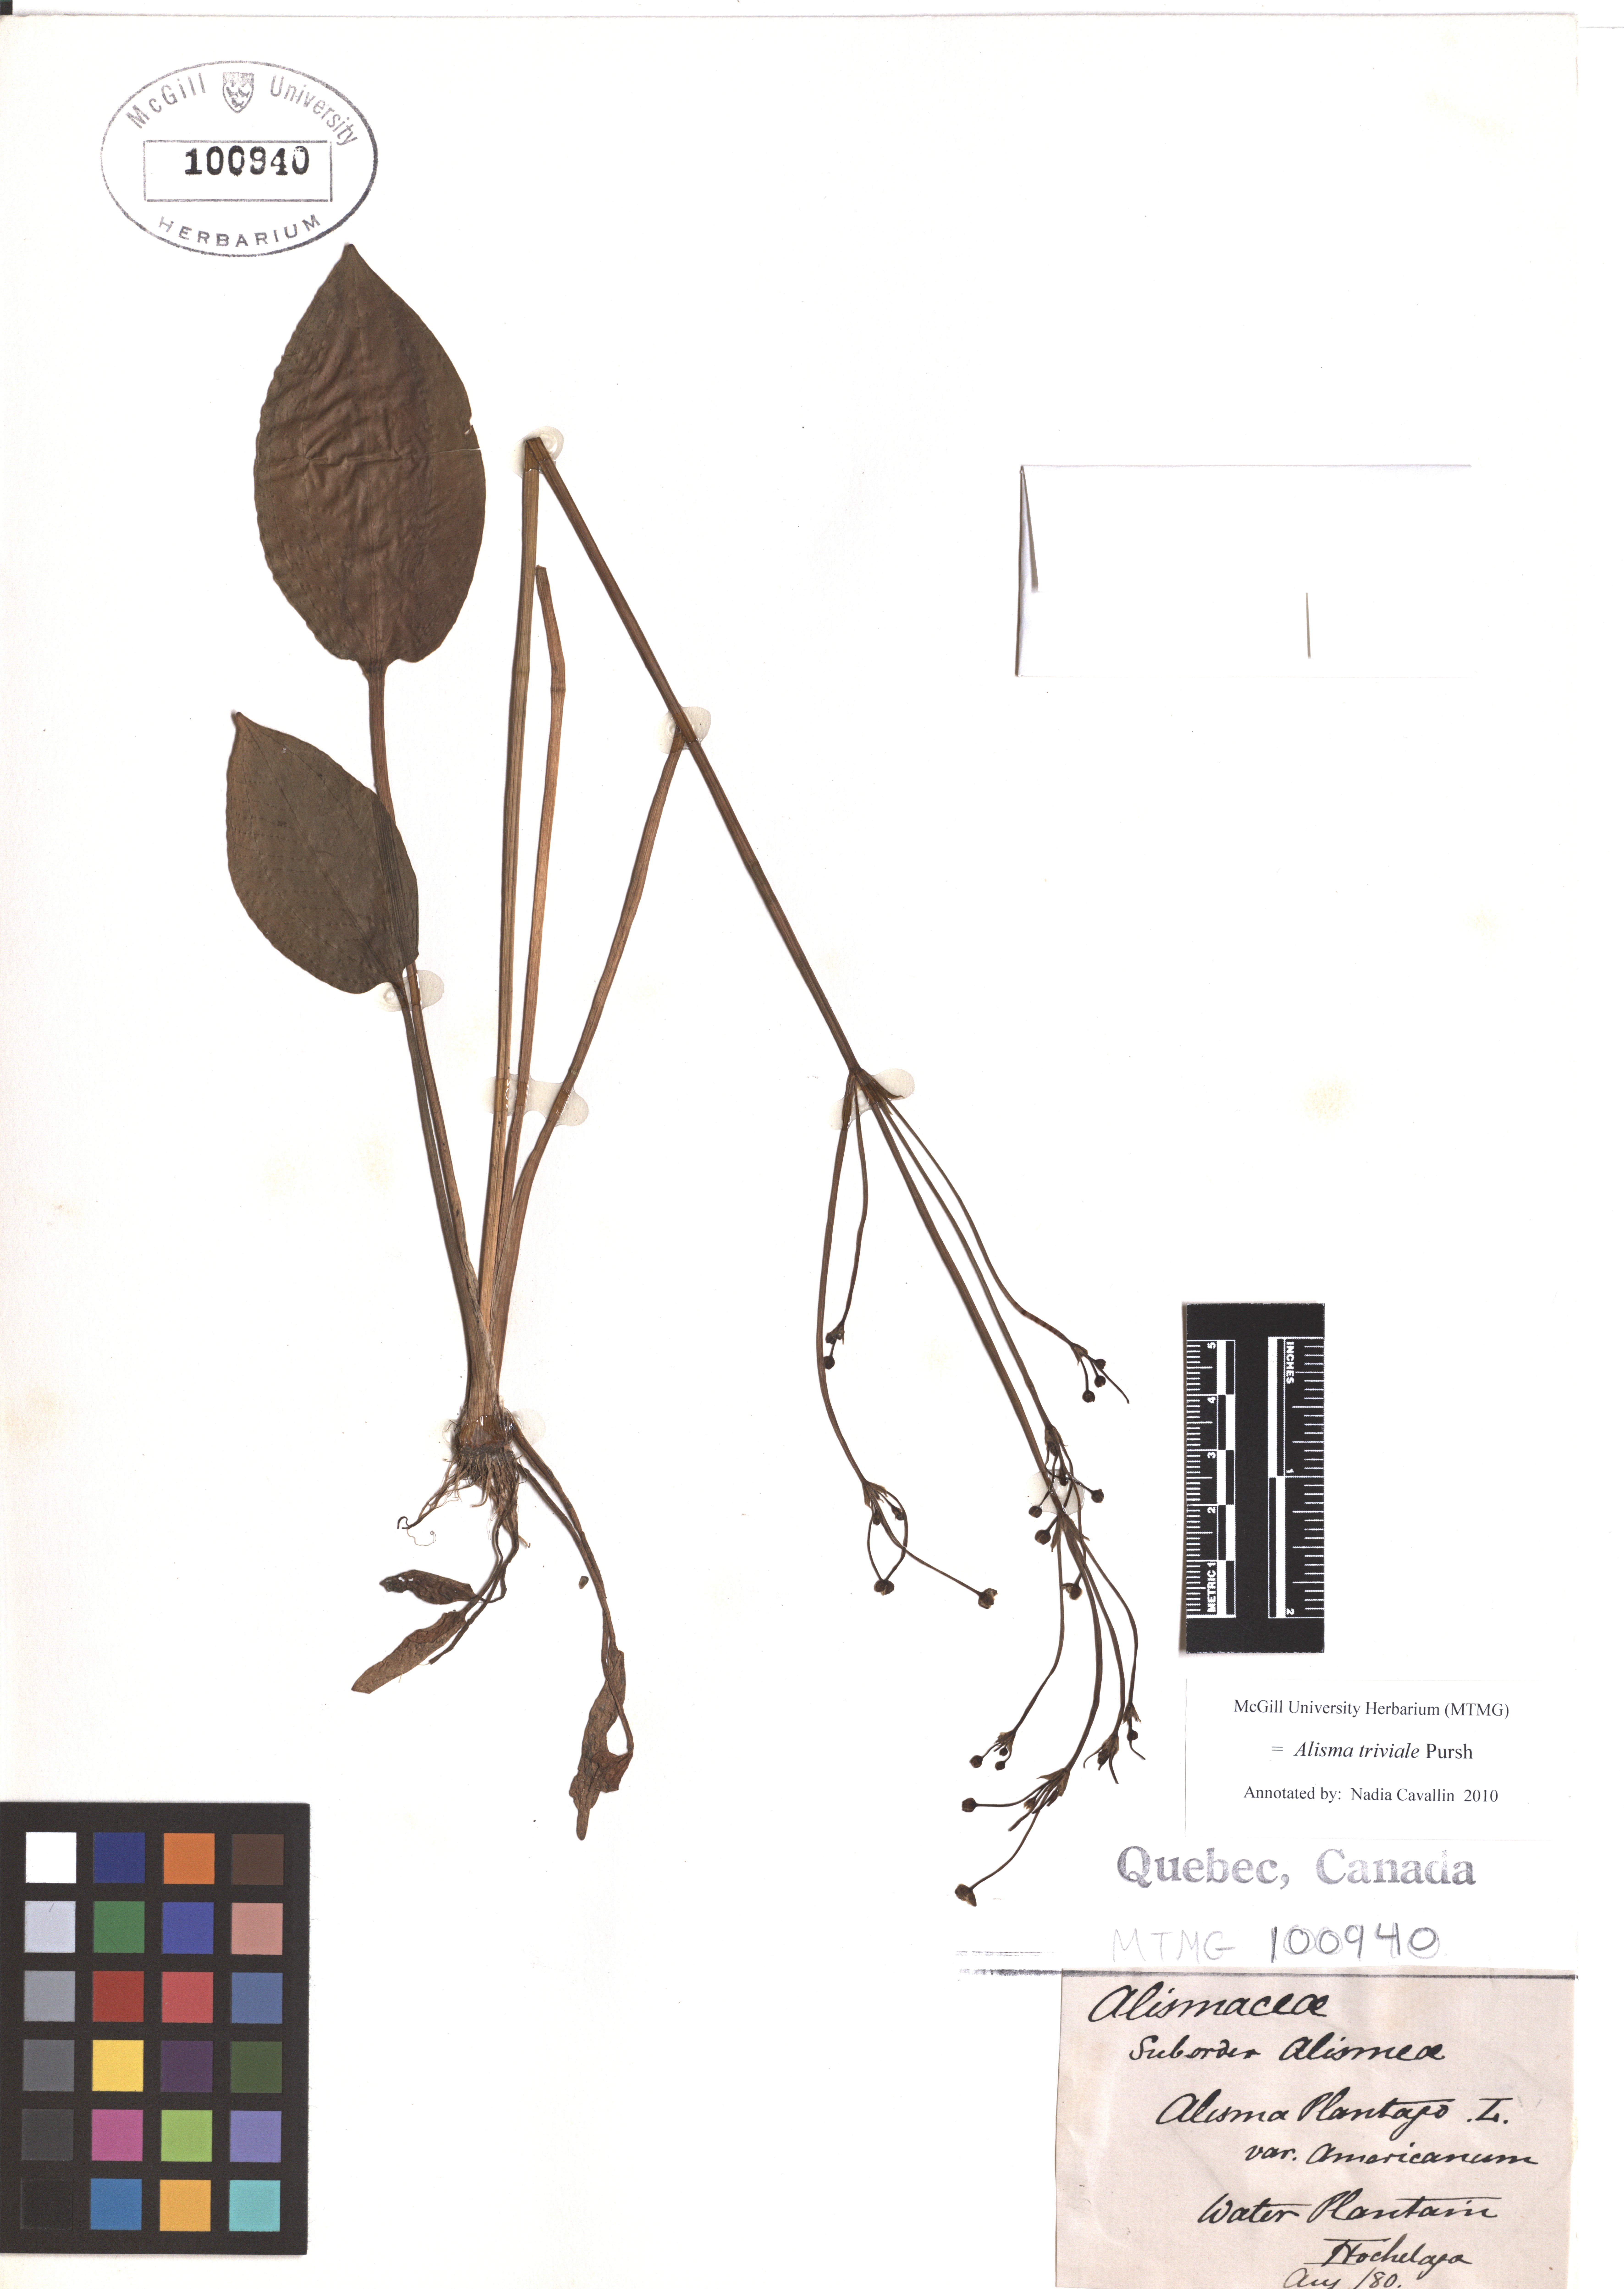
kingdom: Plantae
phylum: Tracheophyta
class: Liliopsida
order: Alismatales
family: Alismataceae
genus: Alisma
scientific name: Alisma triviale
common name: Northern water-plantain
